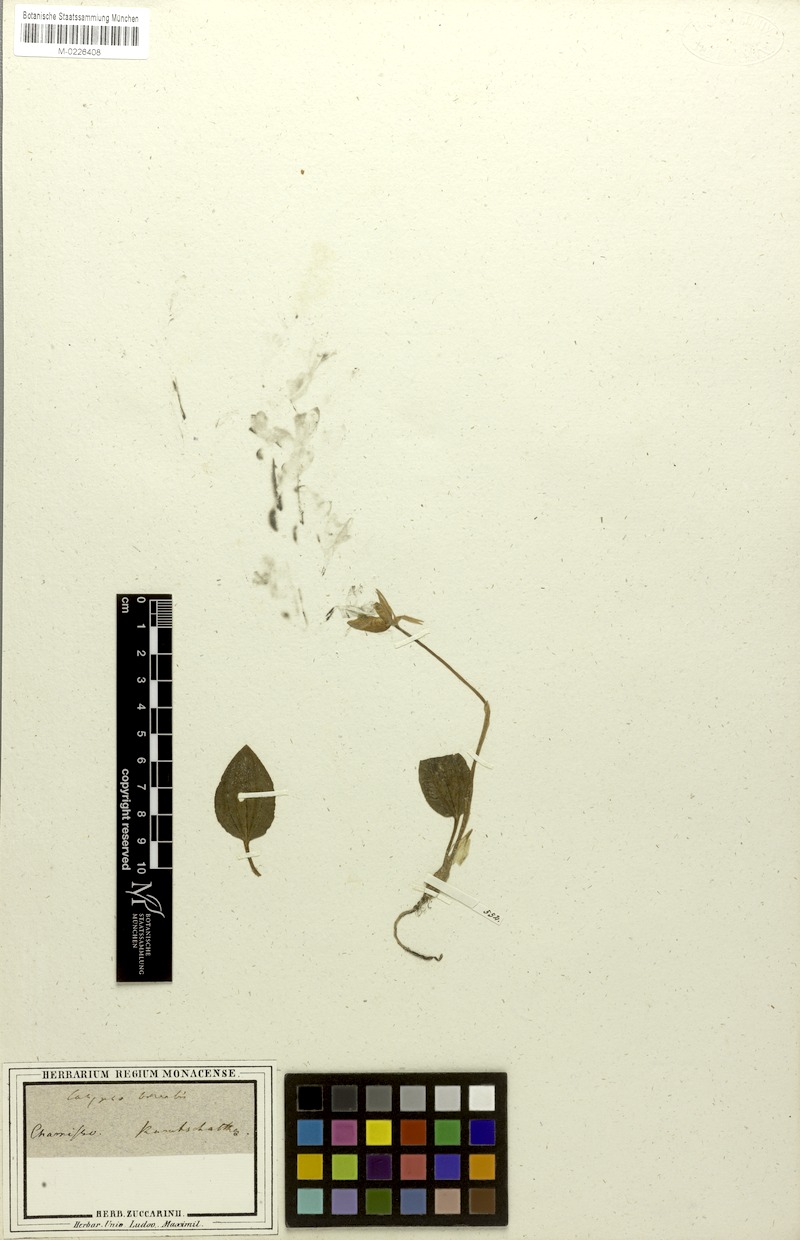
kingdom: Plantae
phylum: Tracheophyta
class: Liliopsida
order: Asparagales
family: Orchidaceae
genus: Calypso
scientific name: Calypso bulbosa
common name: Calypso
